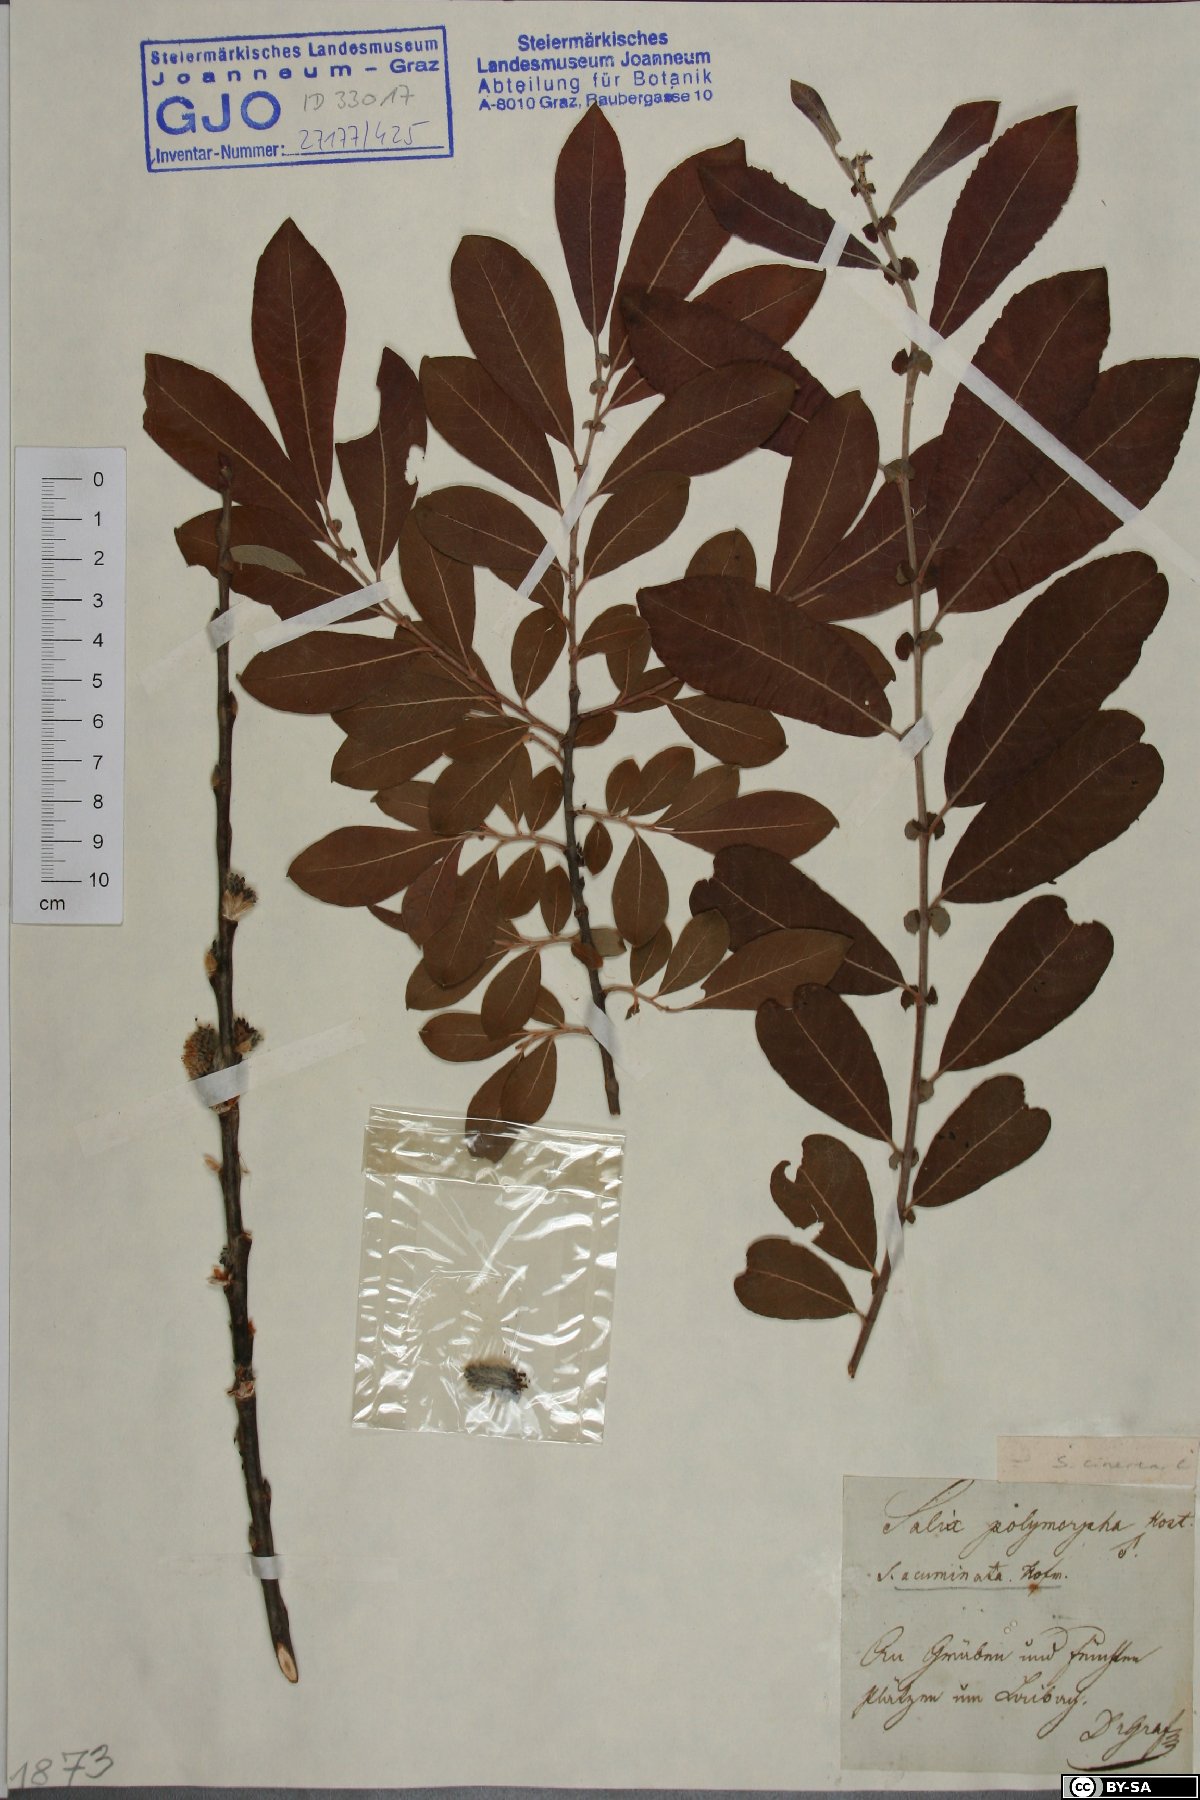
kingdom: Plantae
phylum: Tracheophyta
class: Magnoliopsida
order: Malpighiales
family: Salicaceae
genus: Salix
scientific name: Salix cinerea
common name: Common sallow
